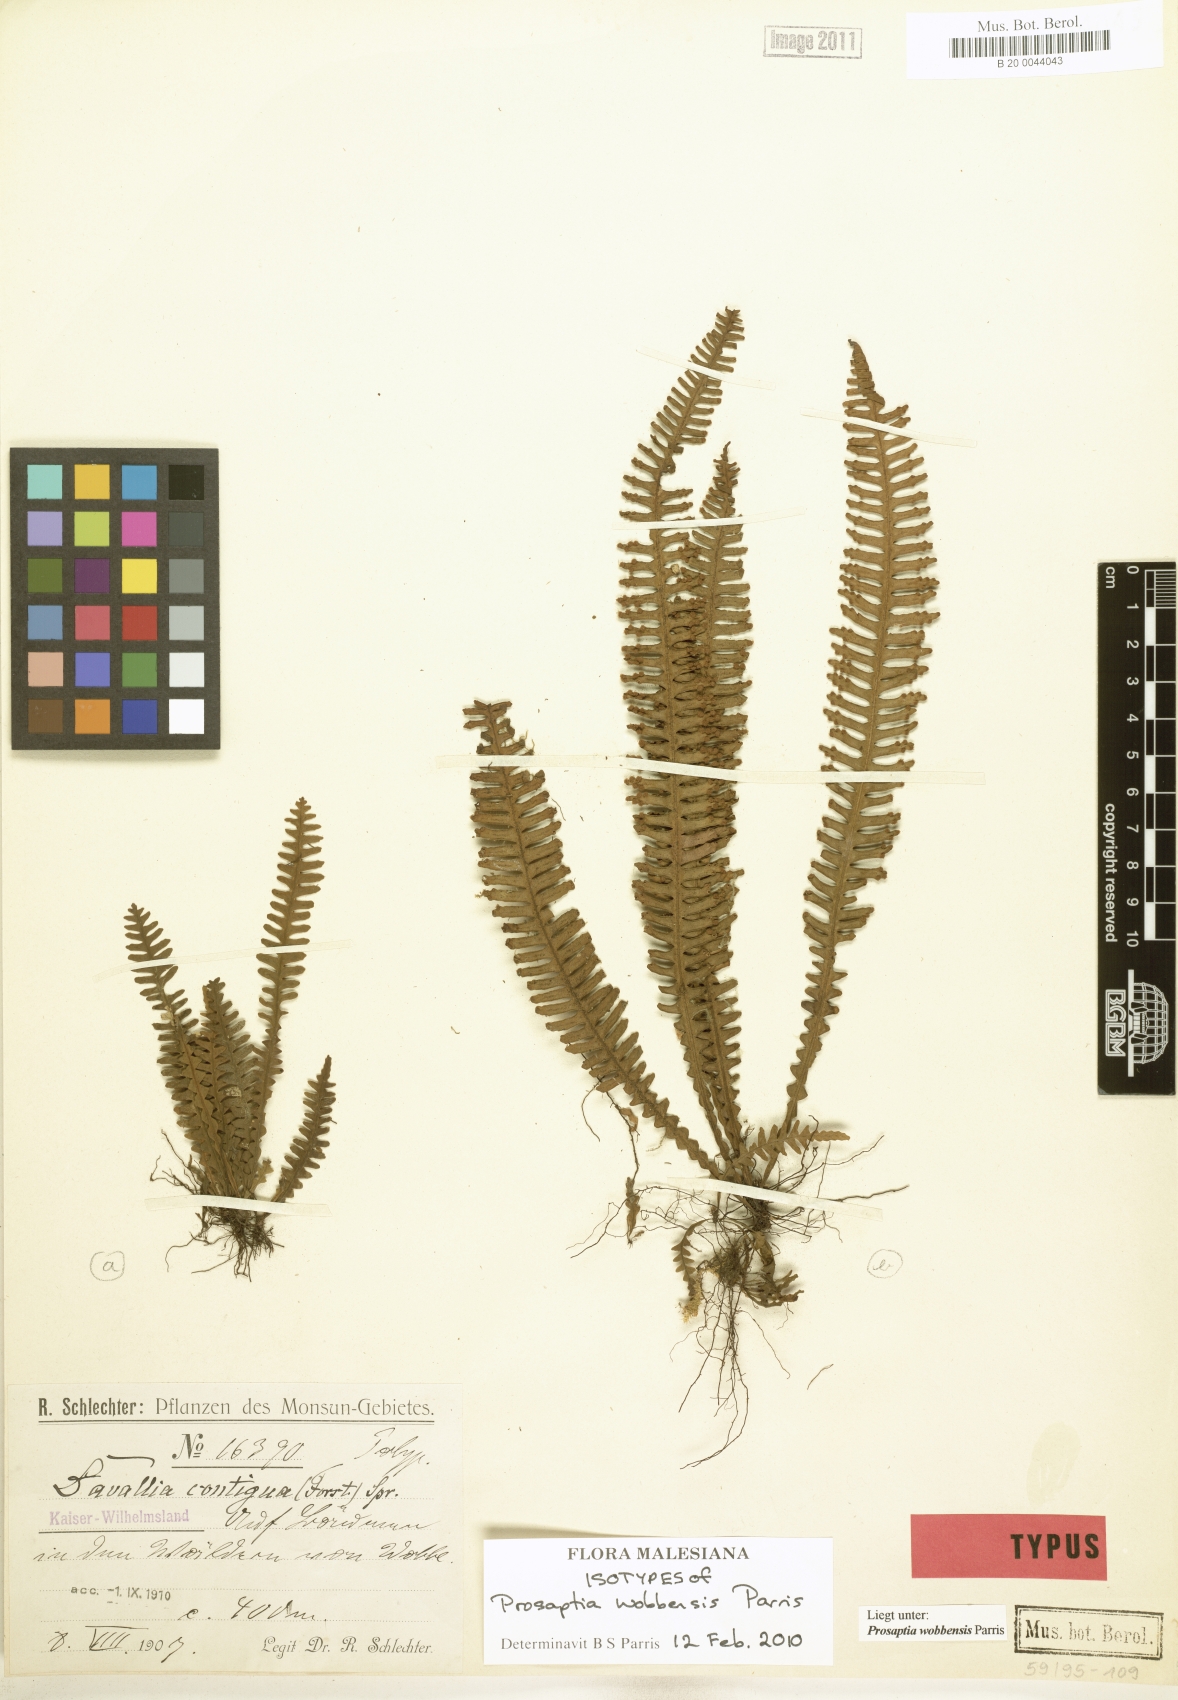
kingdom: Plantae
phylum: Tracheophyta
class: Polypodiopsida
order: Polypodiales
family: Polypodiaceae
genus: Prosaptia
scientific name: Prosaptia wobbensis
